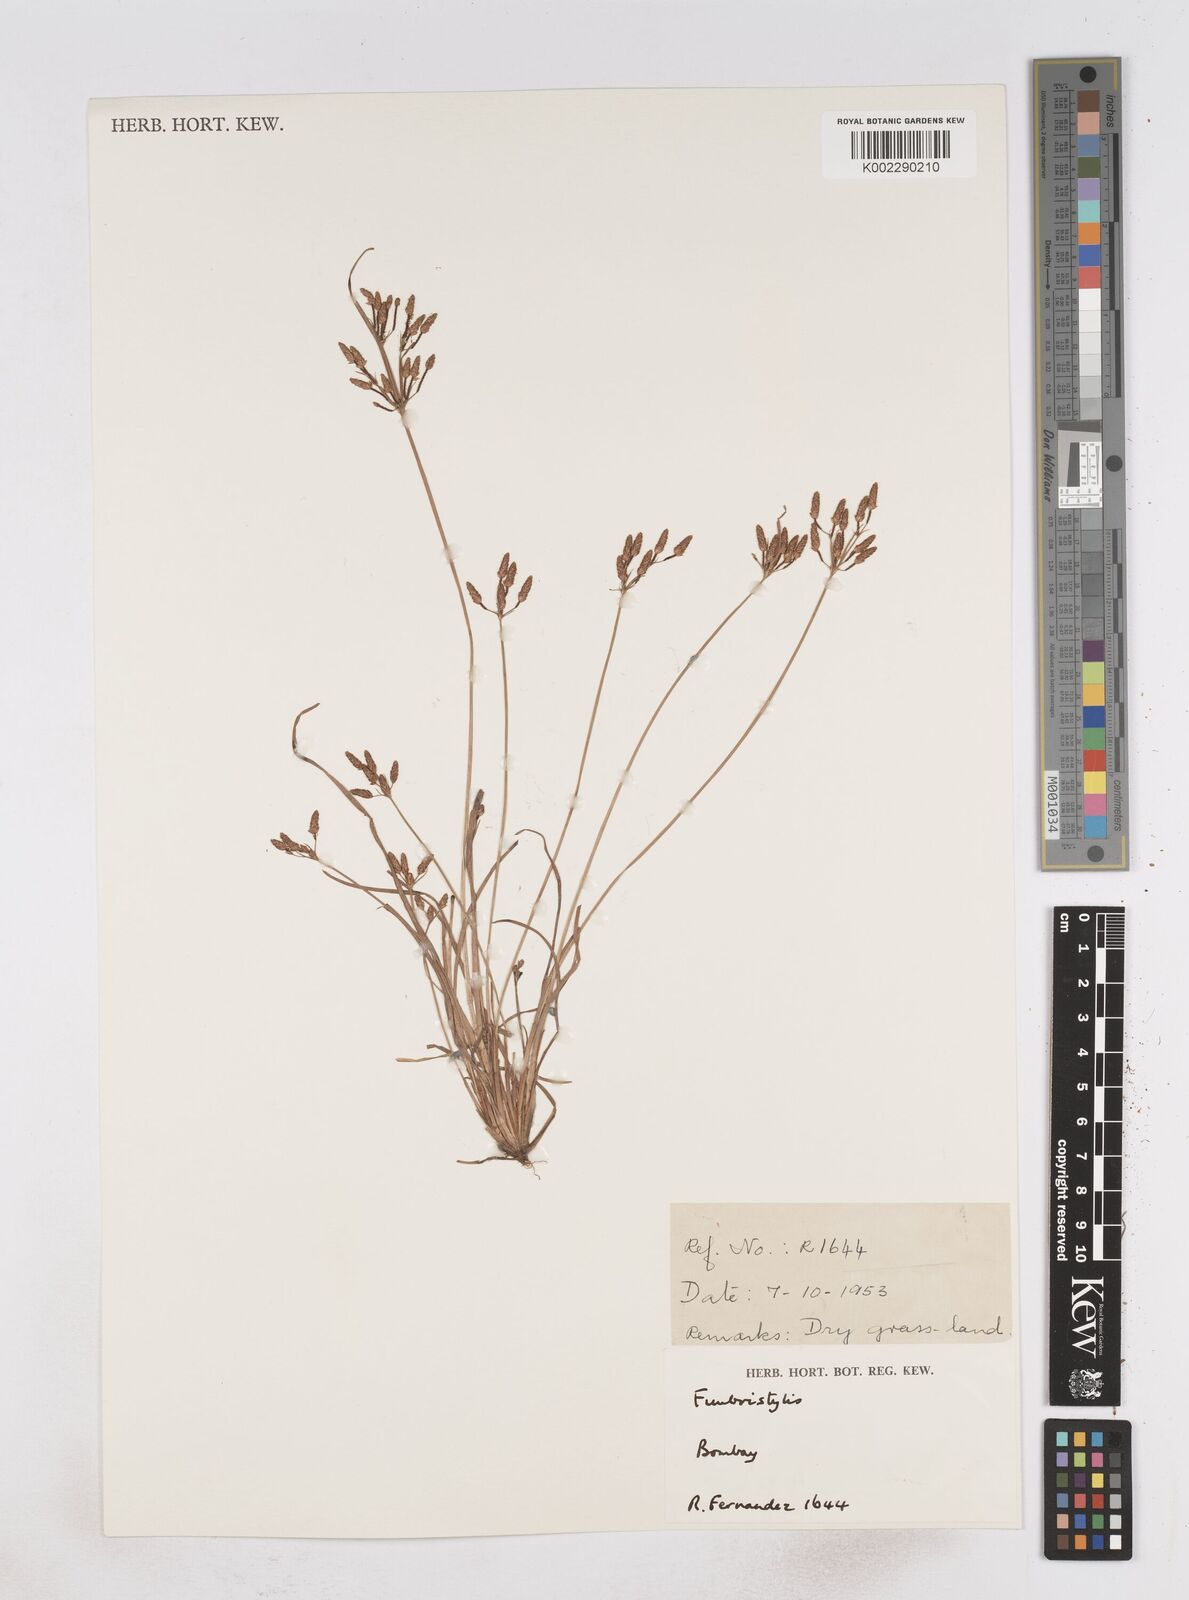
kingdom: Plantae
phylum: Tracheophyta
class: Liliopsida
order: Poales
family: Cyperaceae
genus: Fimbristylis
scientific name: Fimbristylis
